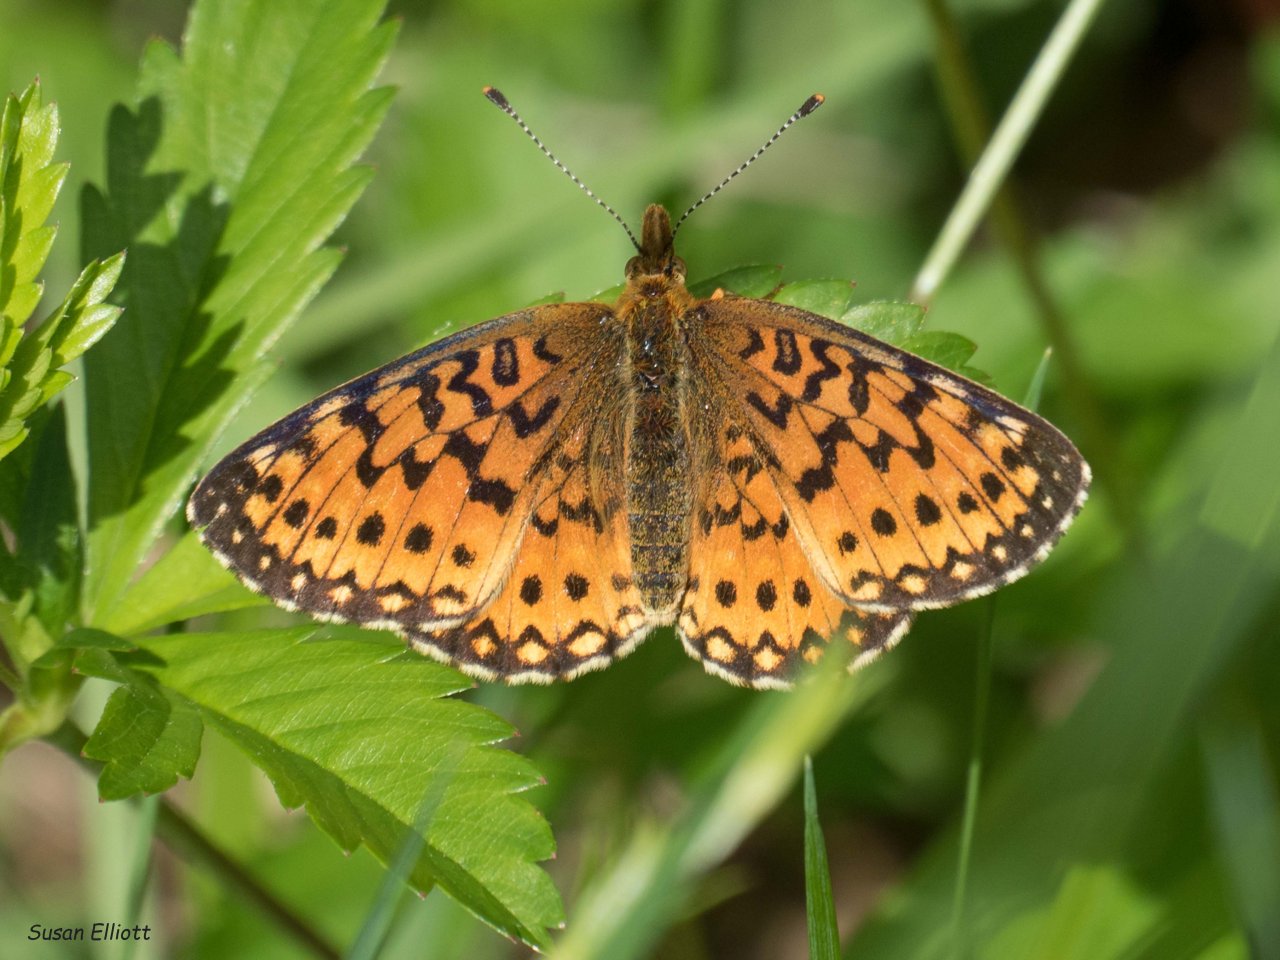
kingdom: Animalia
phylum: Arthropoda
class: Insecta
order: Lepidoptera
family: Nymphalidae
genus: Boloria
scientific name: Boloria selene
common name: Silver-bordered Fritillary
